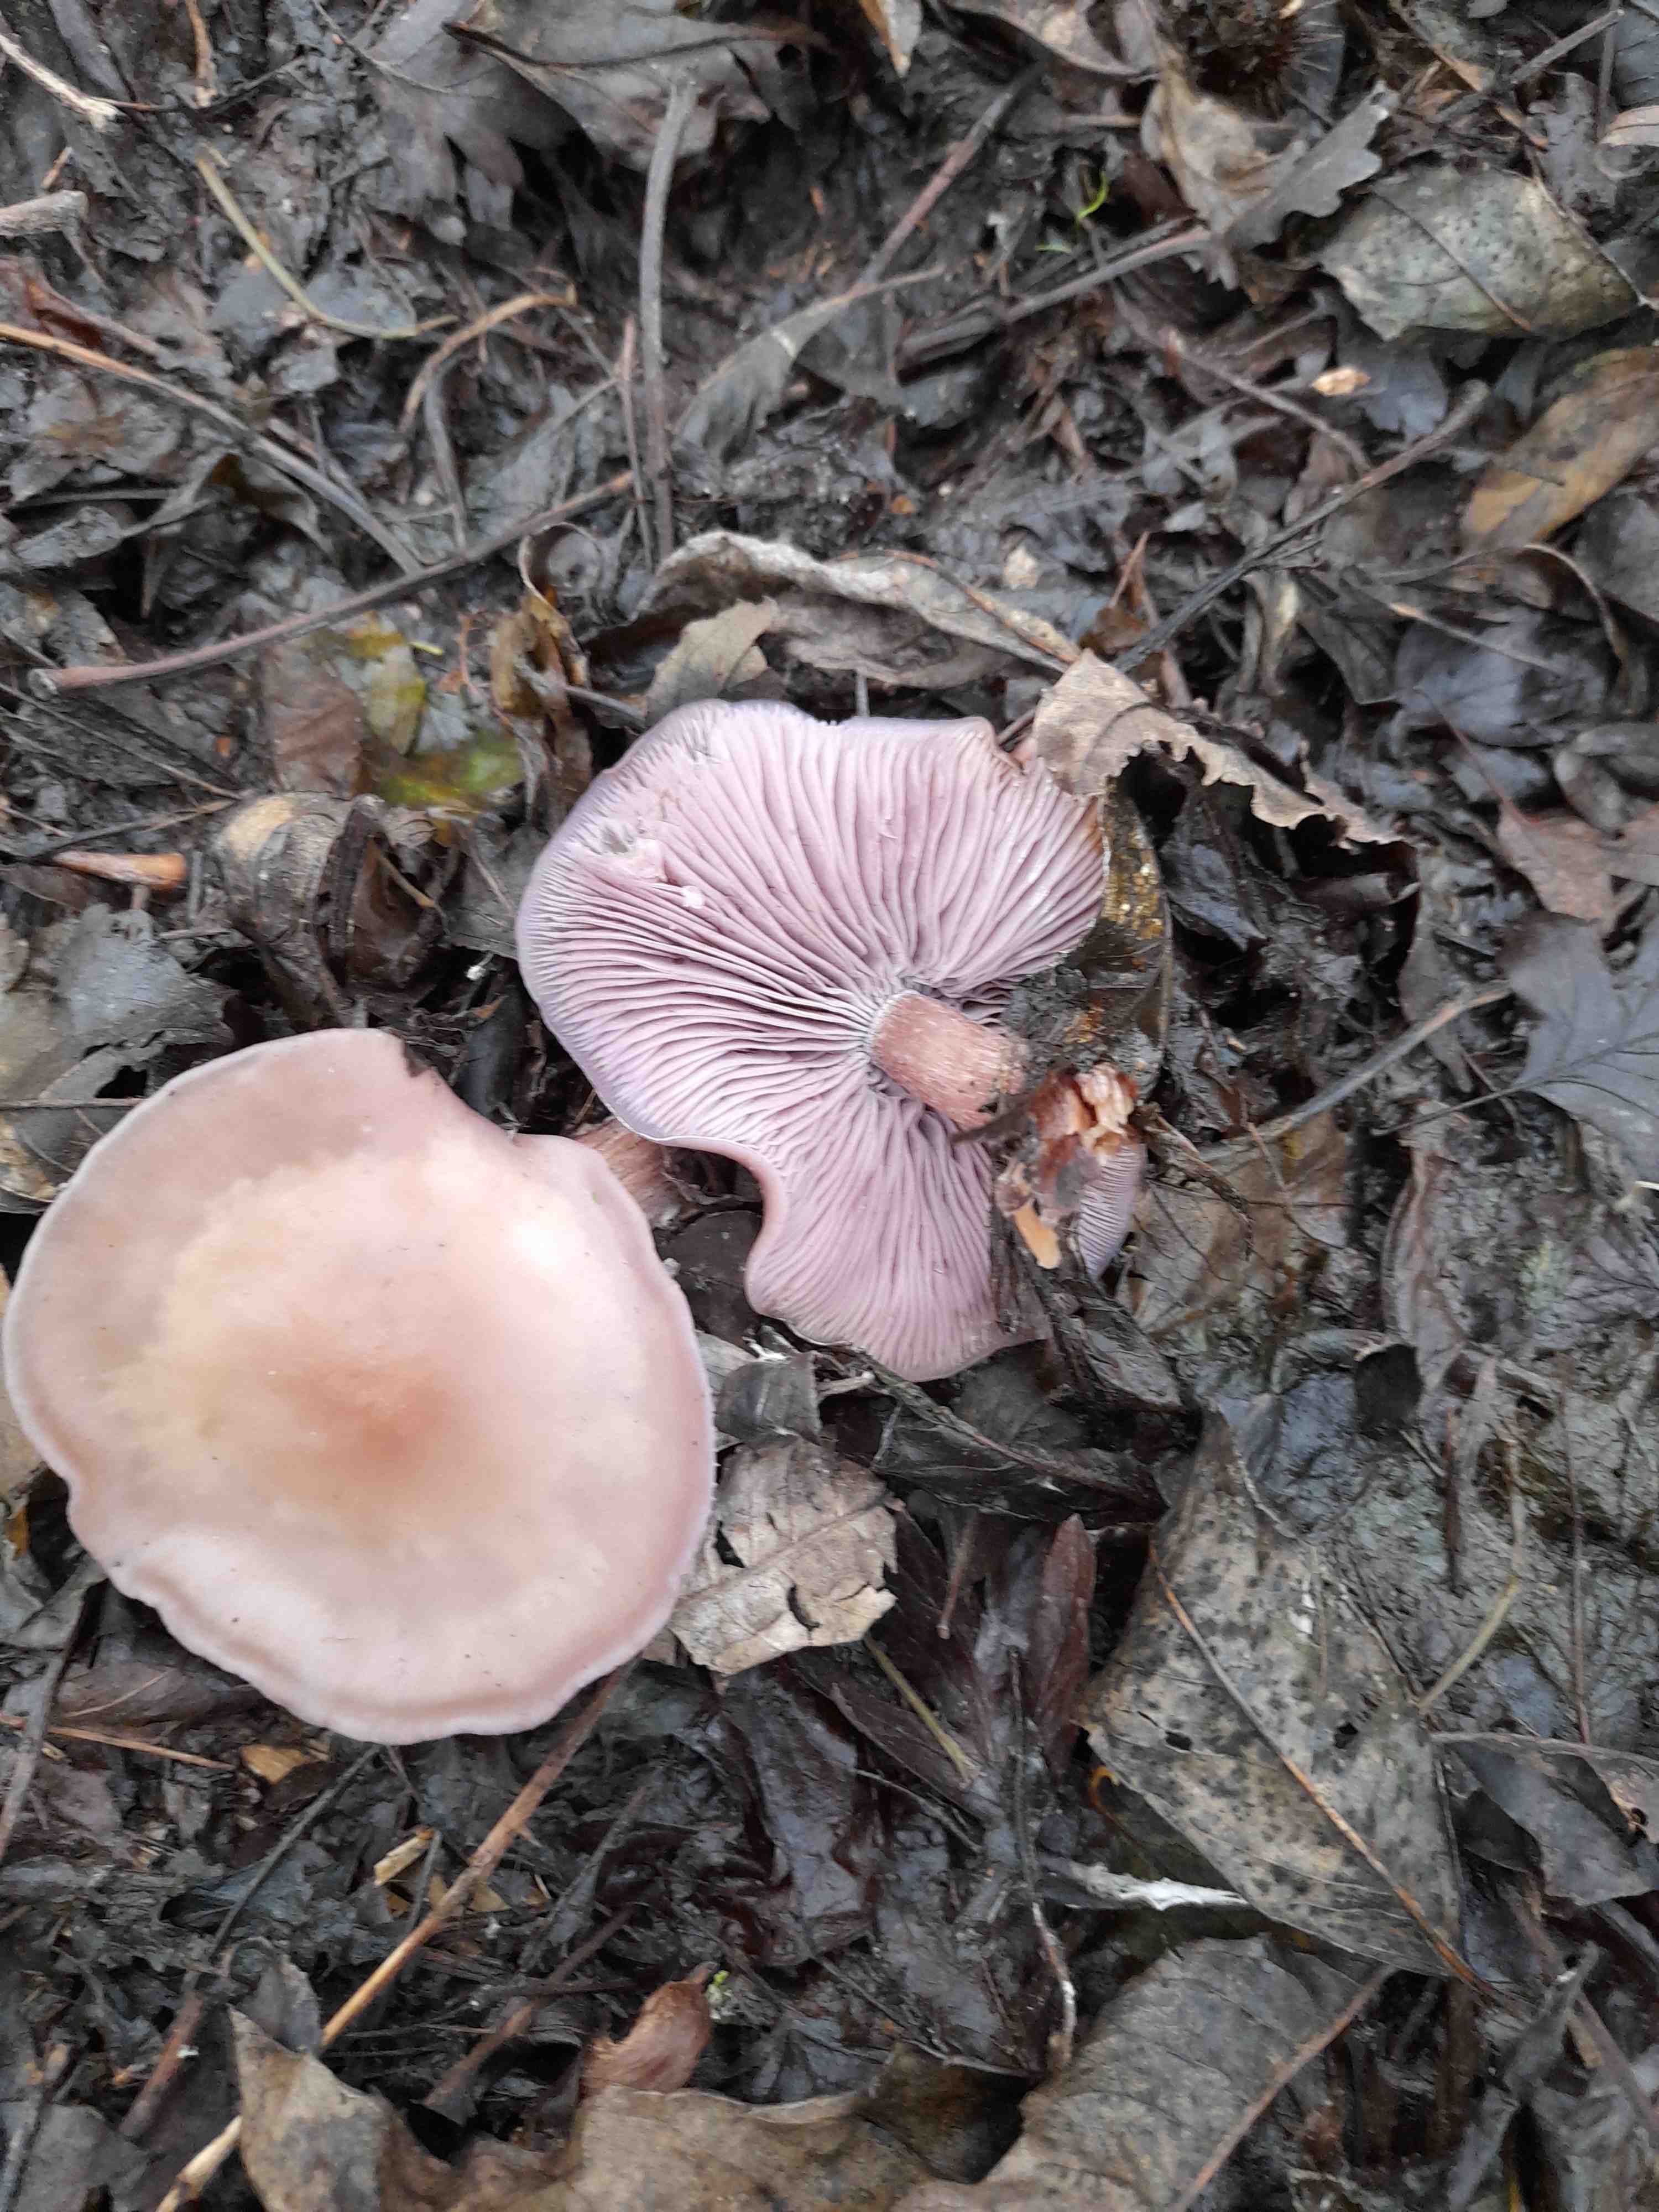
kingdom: Fungi
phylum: Basidiomycota
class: Agaricomycetes
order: Agaricales
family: Tricholomataceae
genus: Lepista
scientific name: Lepista nuda
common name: violet hekseringshat
